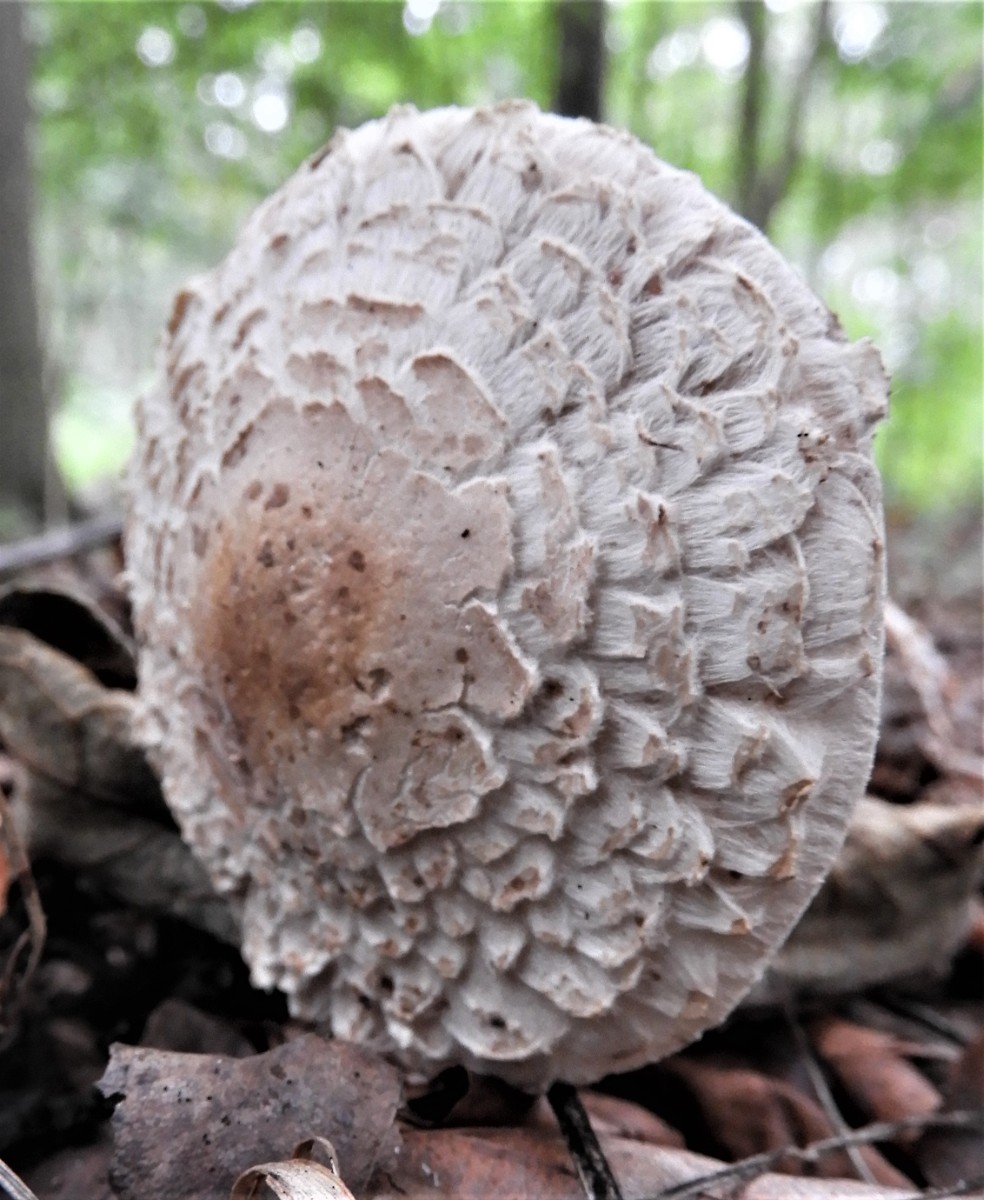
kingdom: Fungi
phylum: Basidiomycota
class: Agaricomycetes
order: Agaricales
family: Agaricaceae
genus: Chlorophyllum
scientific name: Chlorophyllum olivieri
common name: almindelig rabarberhat
